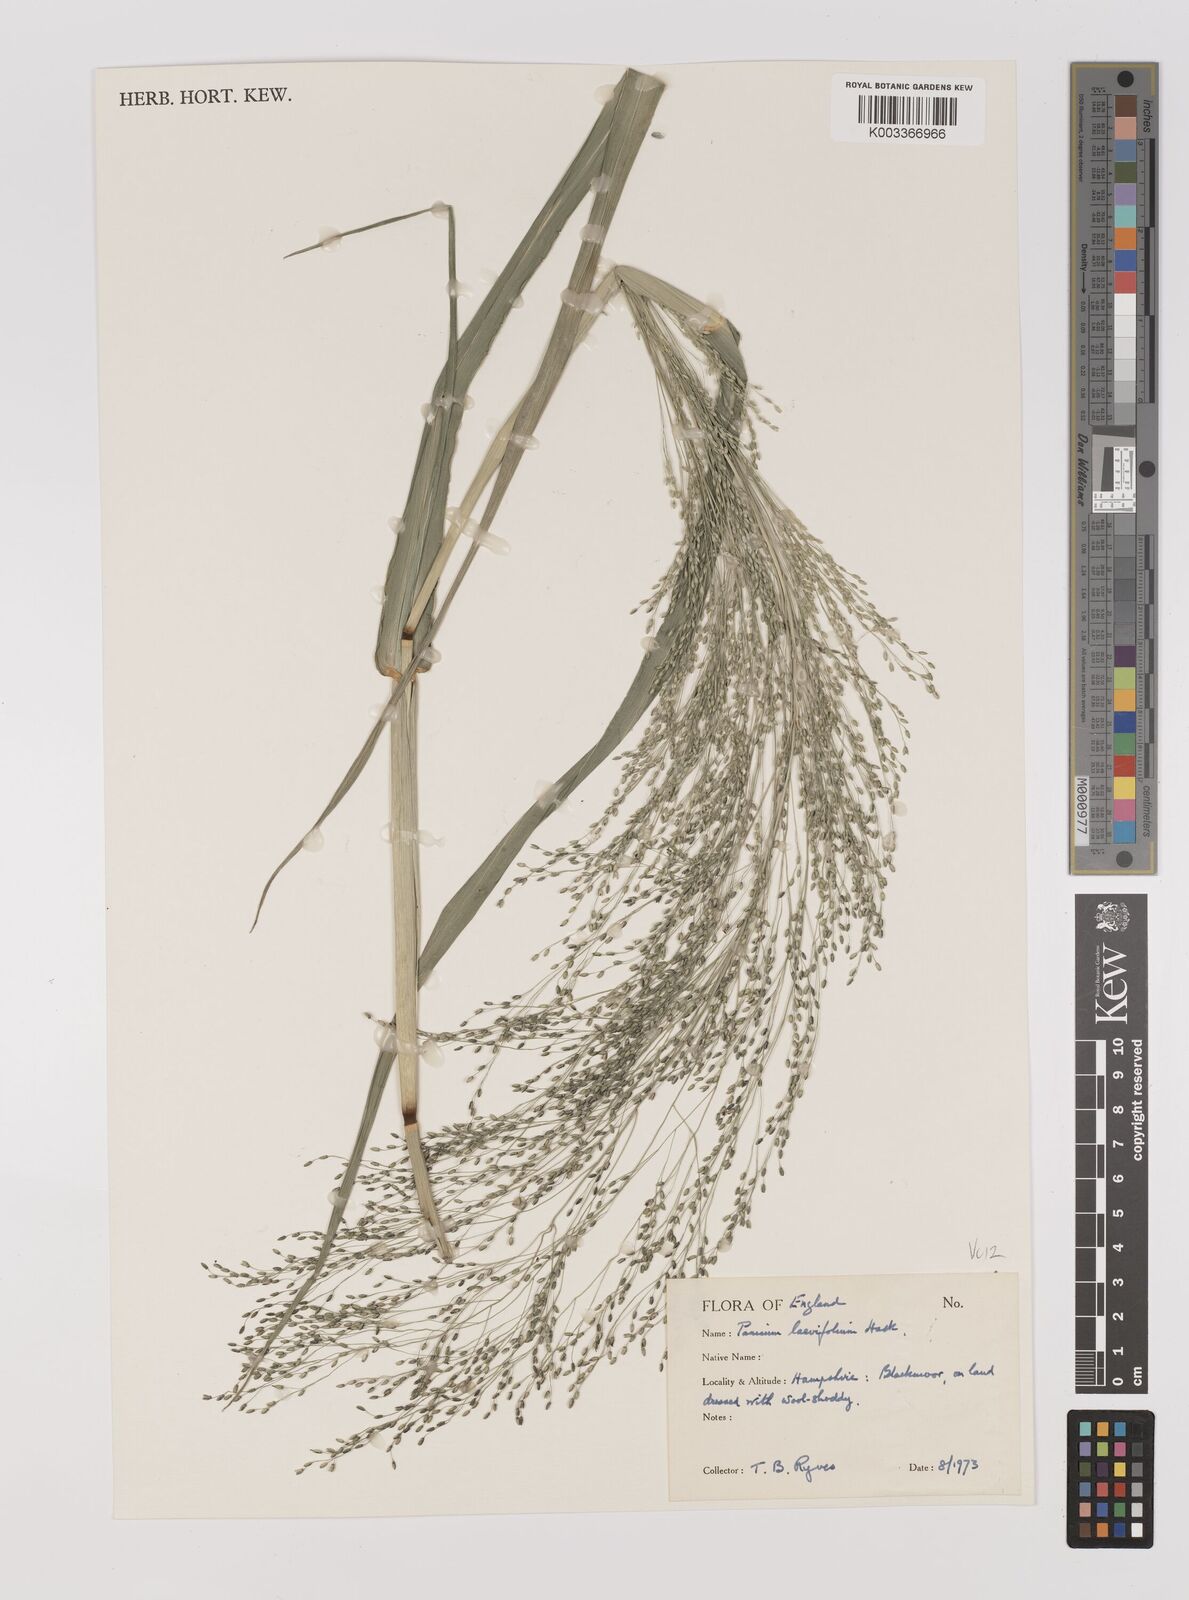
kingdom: Plantae
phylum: Tracheophyta
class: Liliopsida
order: Poales
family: Poaceae
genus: Panicum
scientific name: Panicum schinzii
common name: Sweet grass
